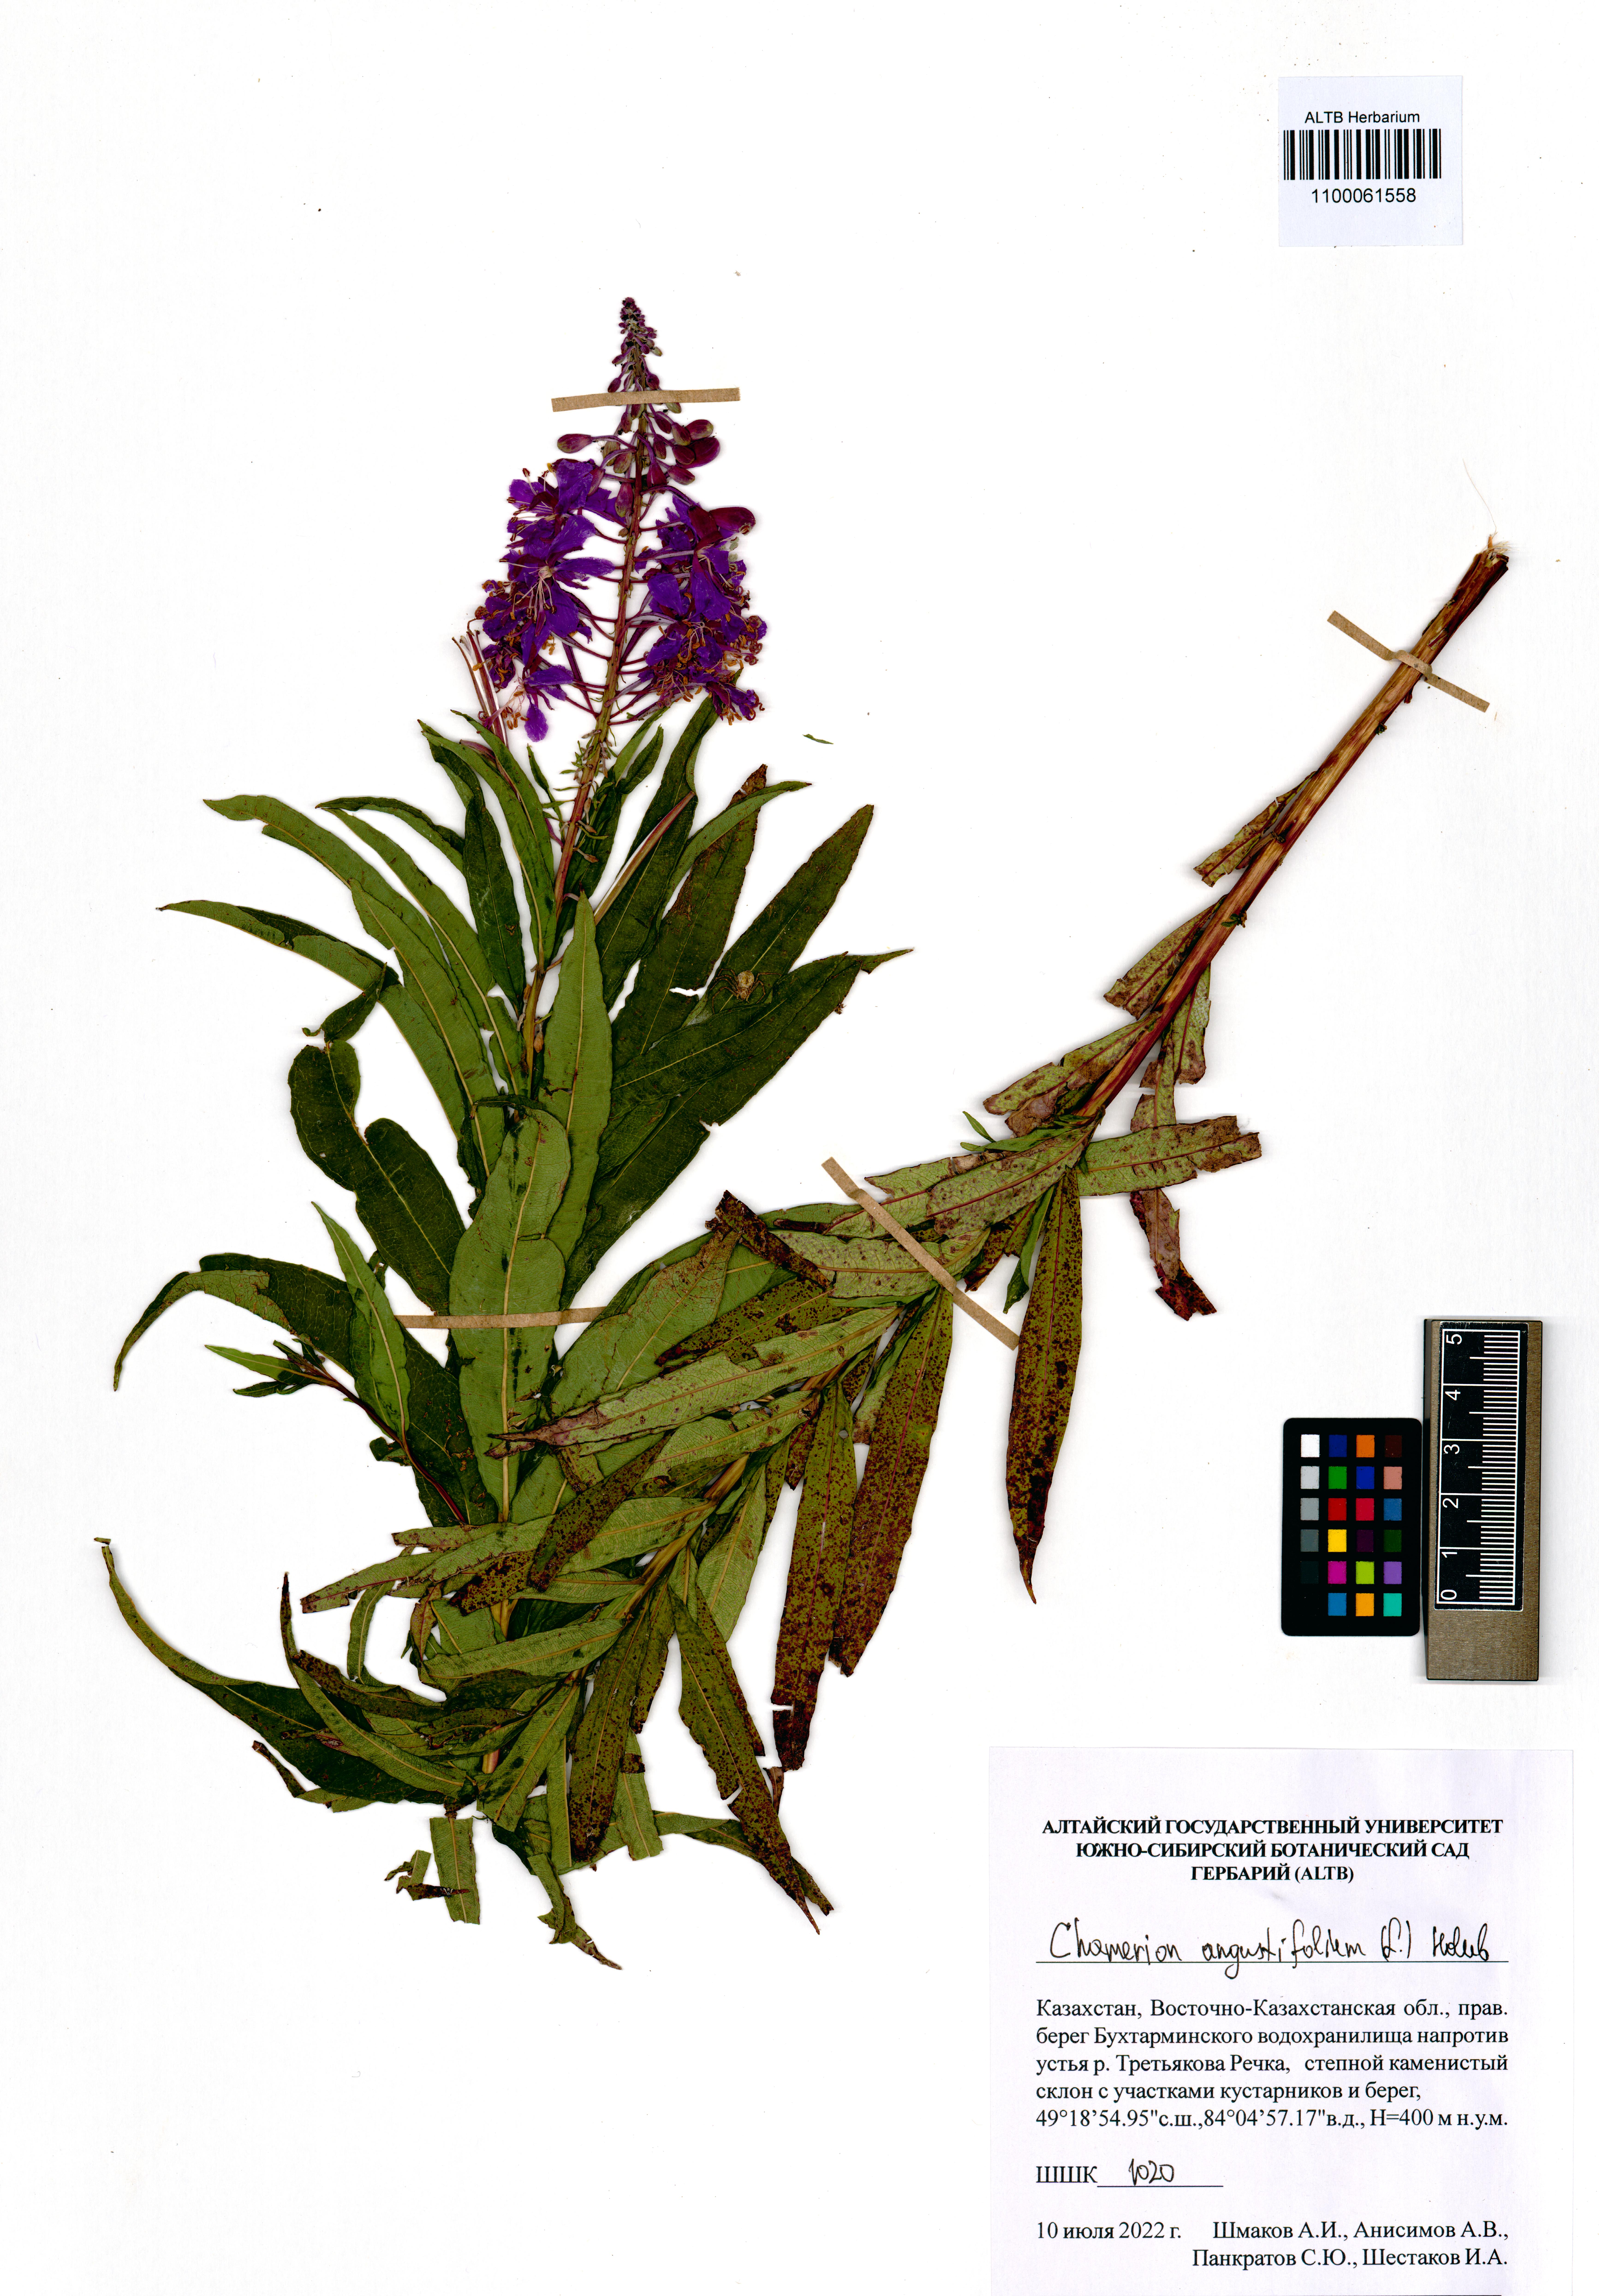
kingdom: Plantae
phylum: Tracheophyta
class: Magnoliopsida
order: Myrtales
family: Onagraceae
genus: Chamaenerion
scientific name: Chamaenerion angustifolium
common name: Fireweed
